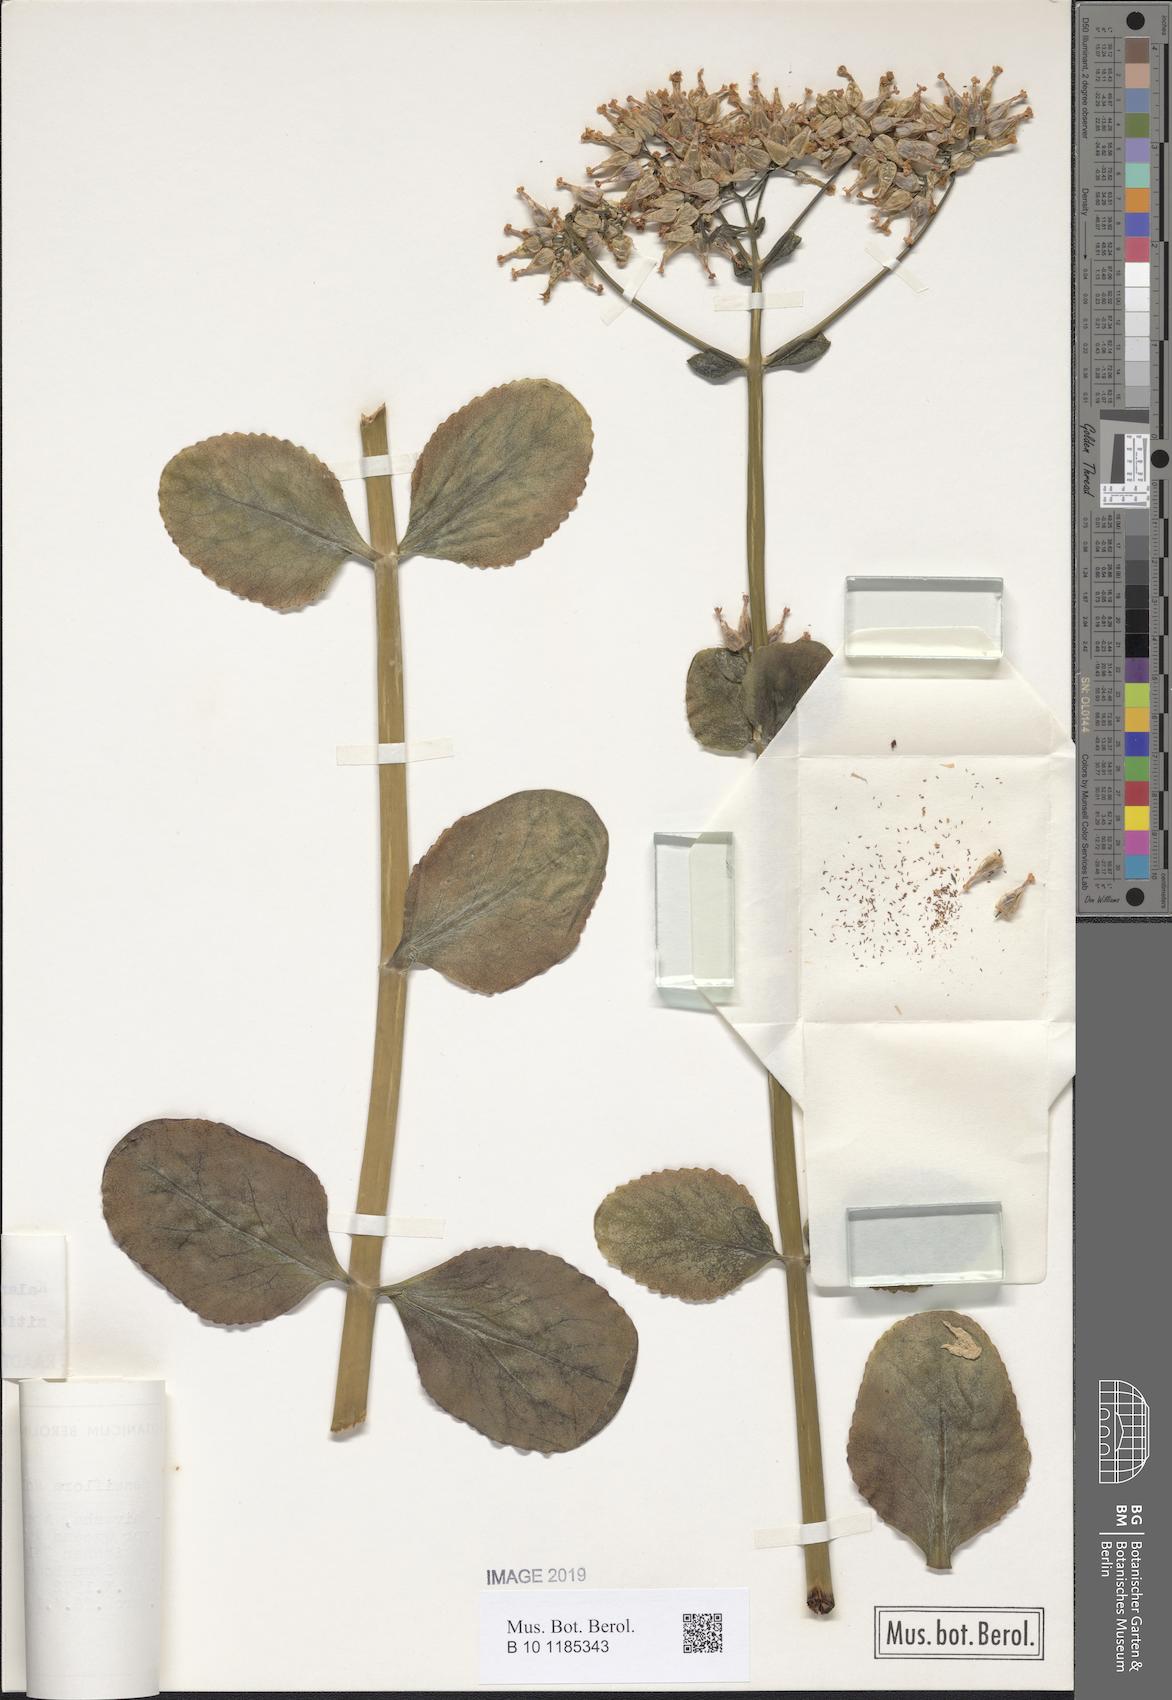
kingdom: Plantae
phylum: Tracheophyta
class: Magnoliopsida
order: Saxifragales
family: Crassulaceae
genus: Kalanchoe
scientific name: Kalanchoe densiflora
